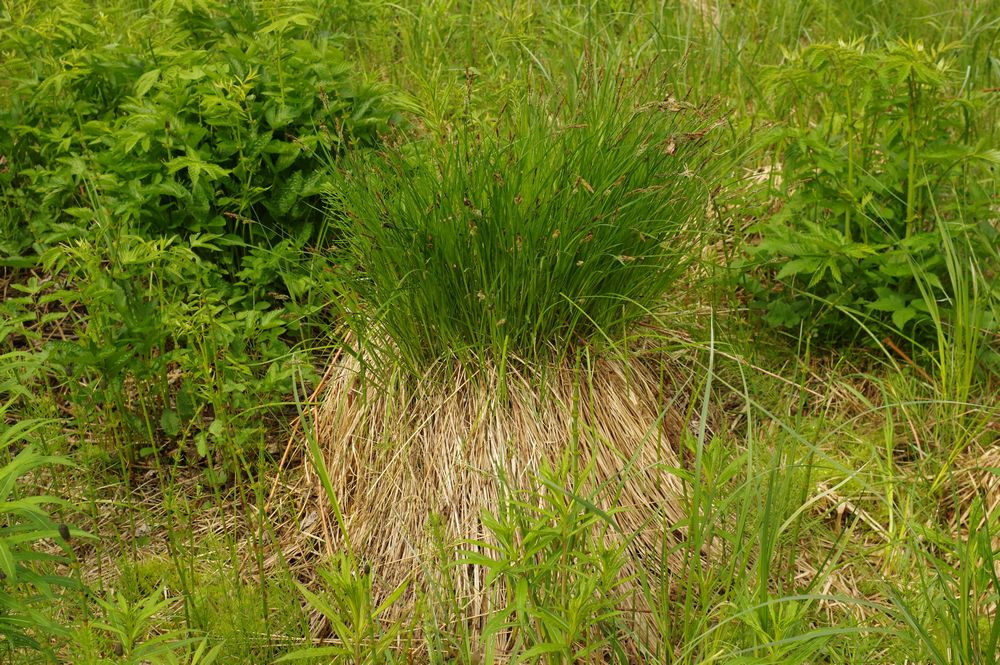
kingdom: Plantae
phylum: Tracheophyta
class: Liliopsida
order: Poales
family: Cyperaceae
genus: Carex
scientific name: Carex cespitosa
